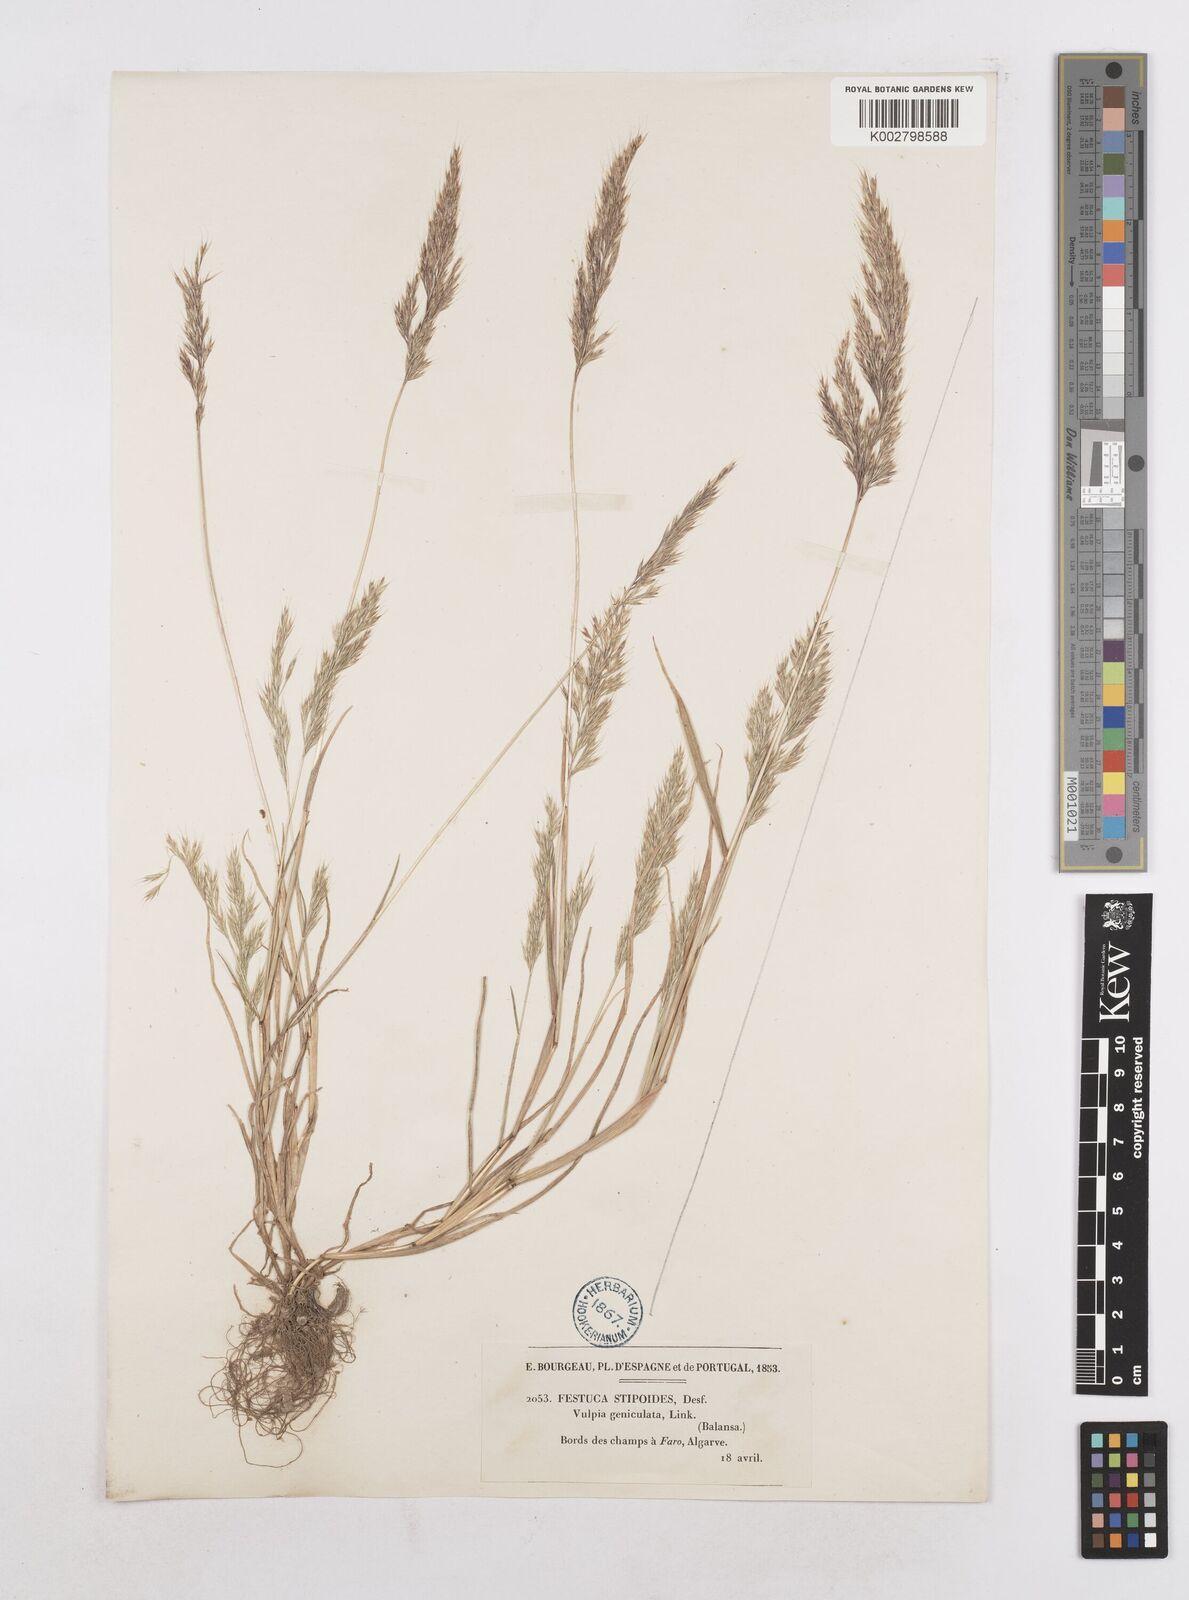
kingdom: Plantae
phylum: Tracheophyta
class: Liliopsida
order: Poales
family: Poaceae
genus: Festuca
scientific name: Festuca geniculata
